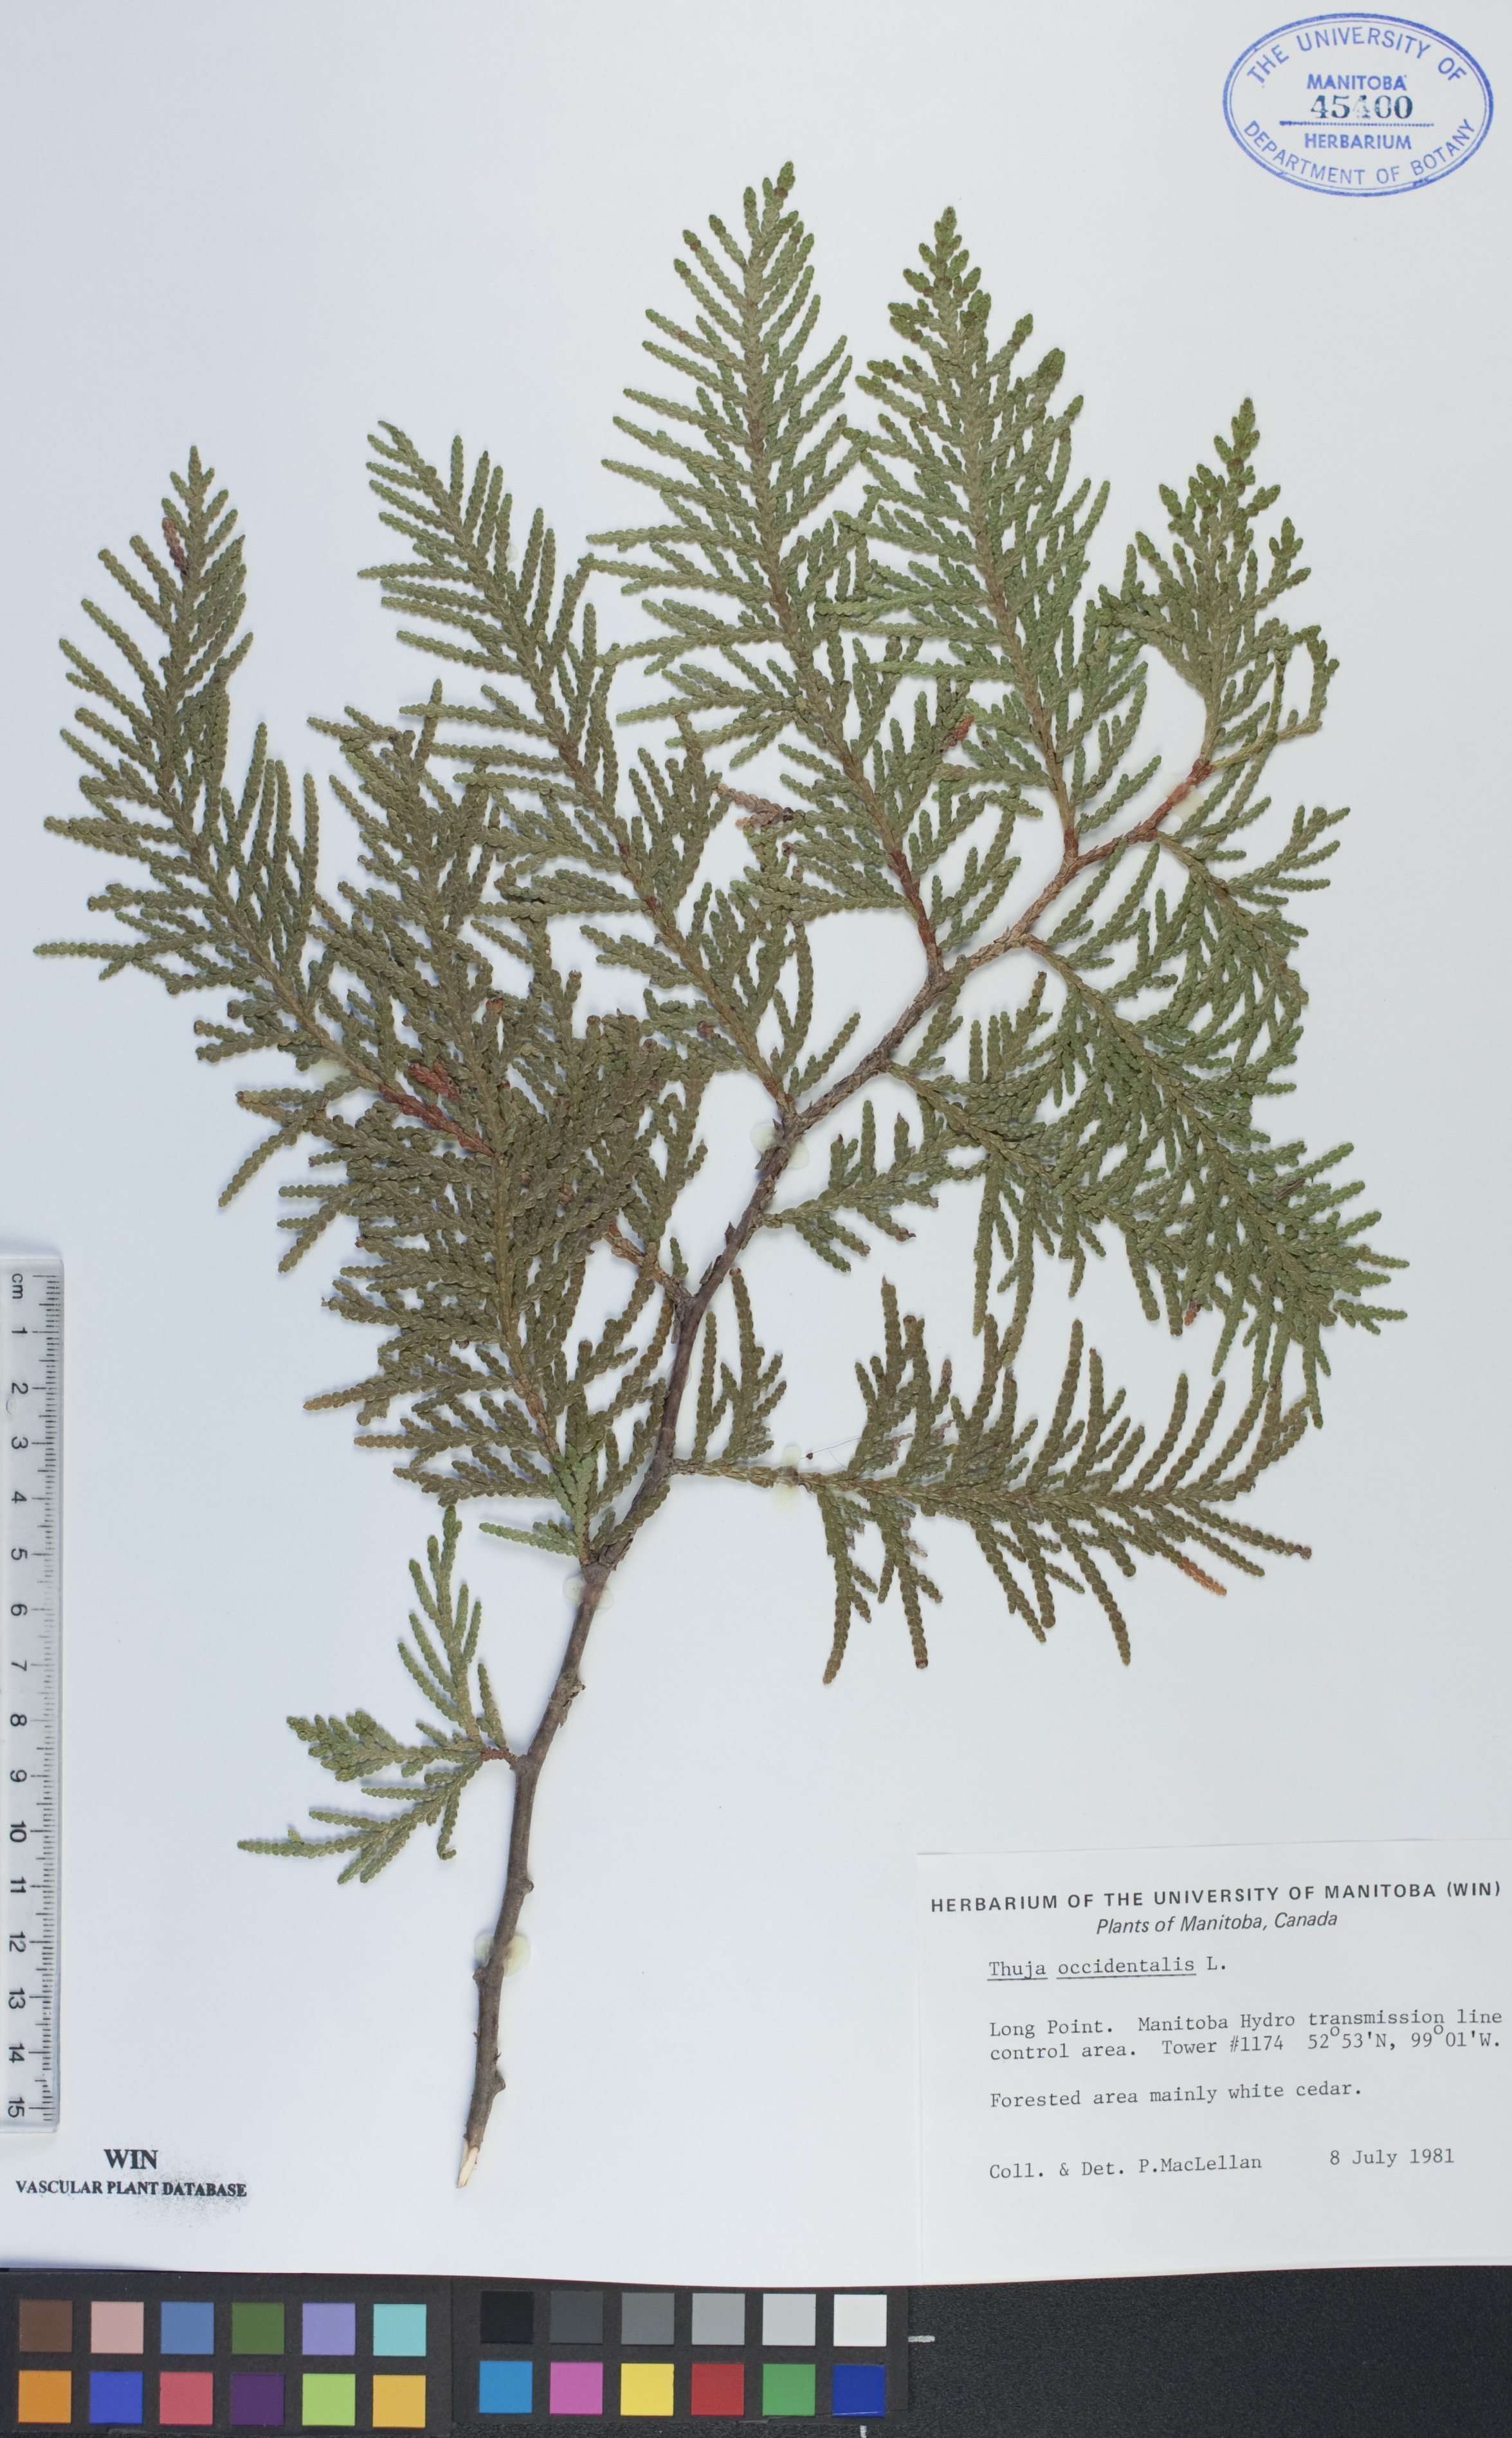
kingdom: Plantae
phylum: Tracheophyta
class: Pinopsida
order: Pinales
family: Cupressaceae
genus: Thuja
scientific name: Thuja occidentalis
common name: Northern white-cedar
